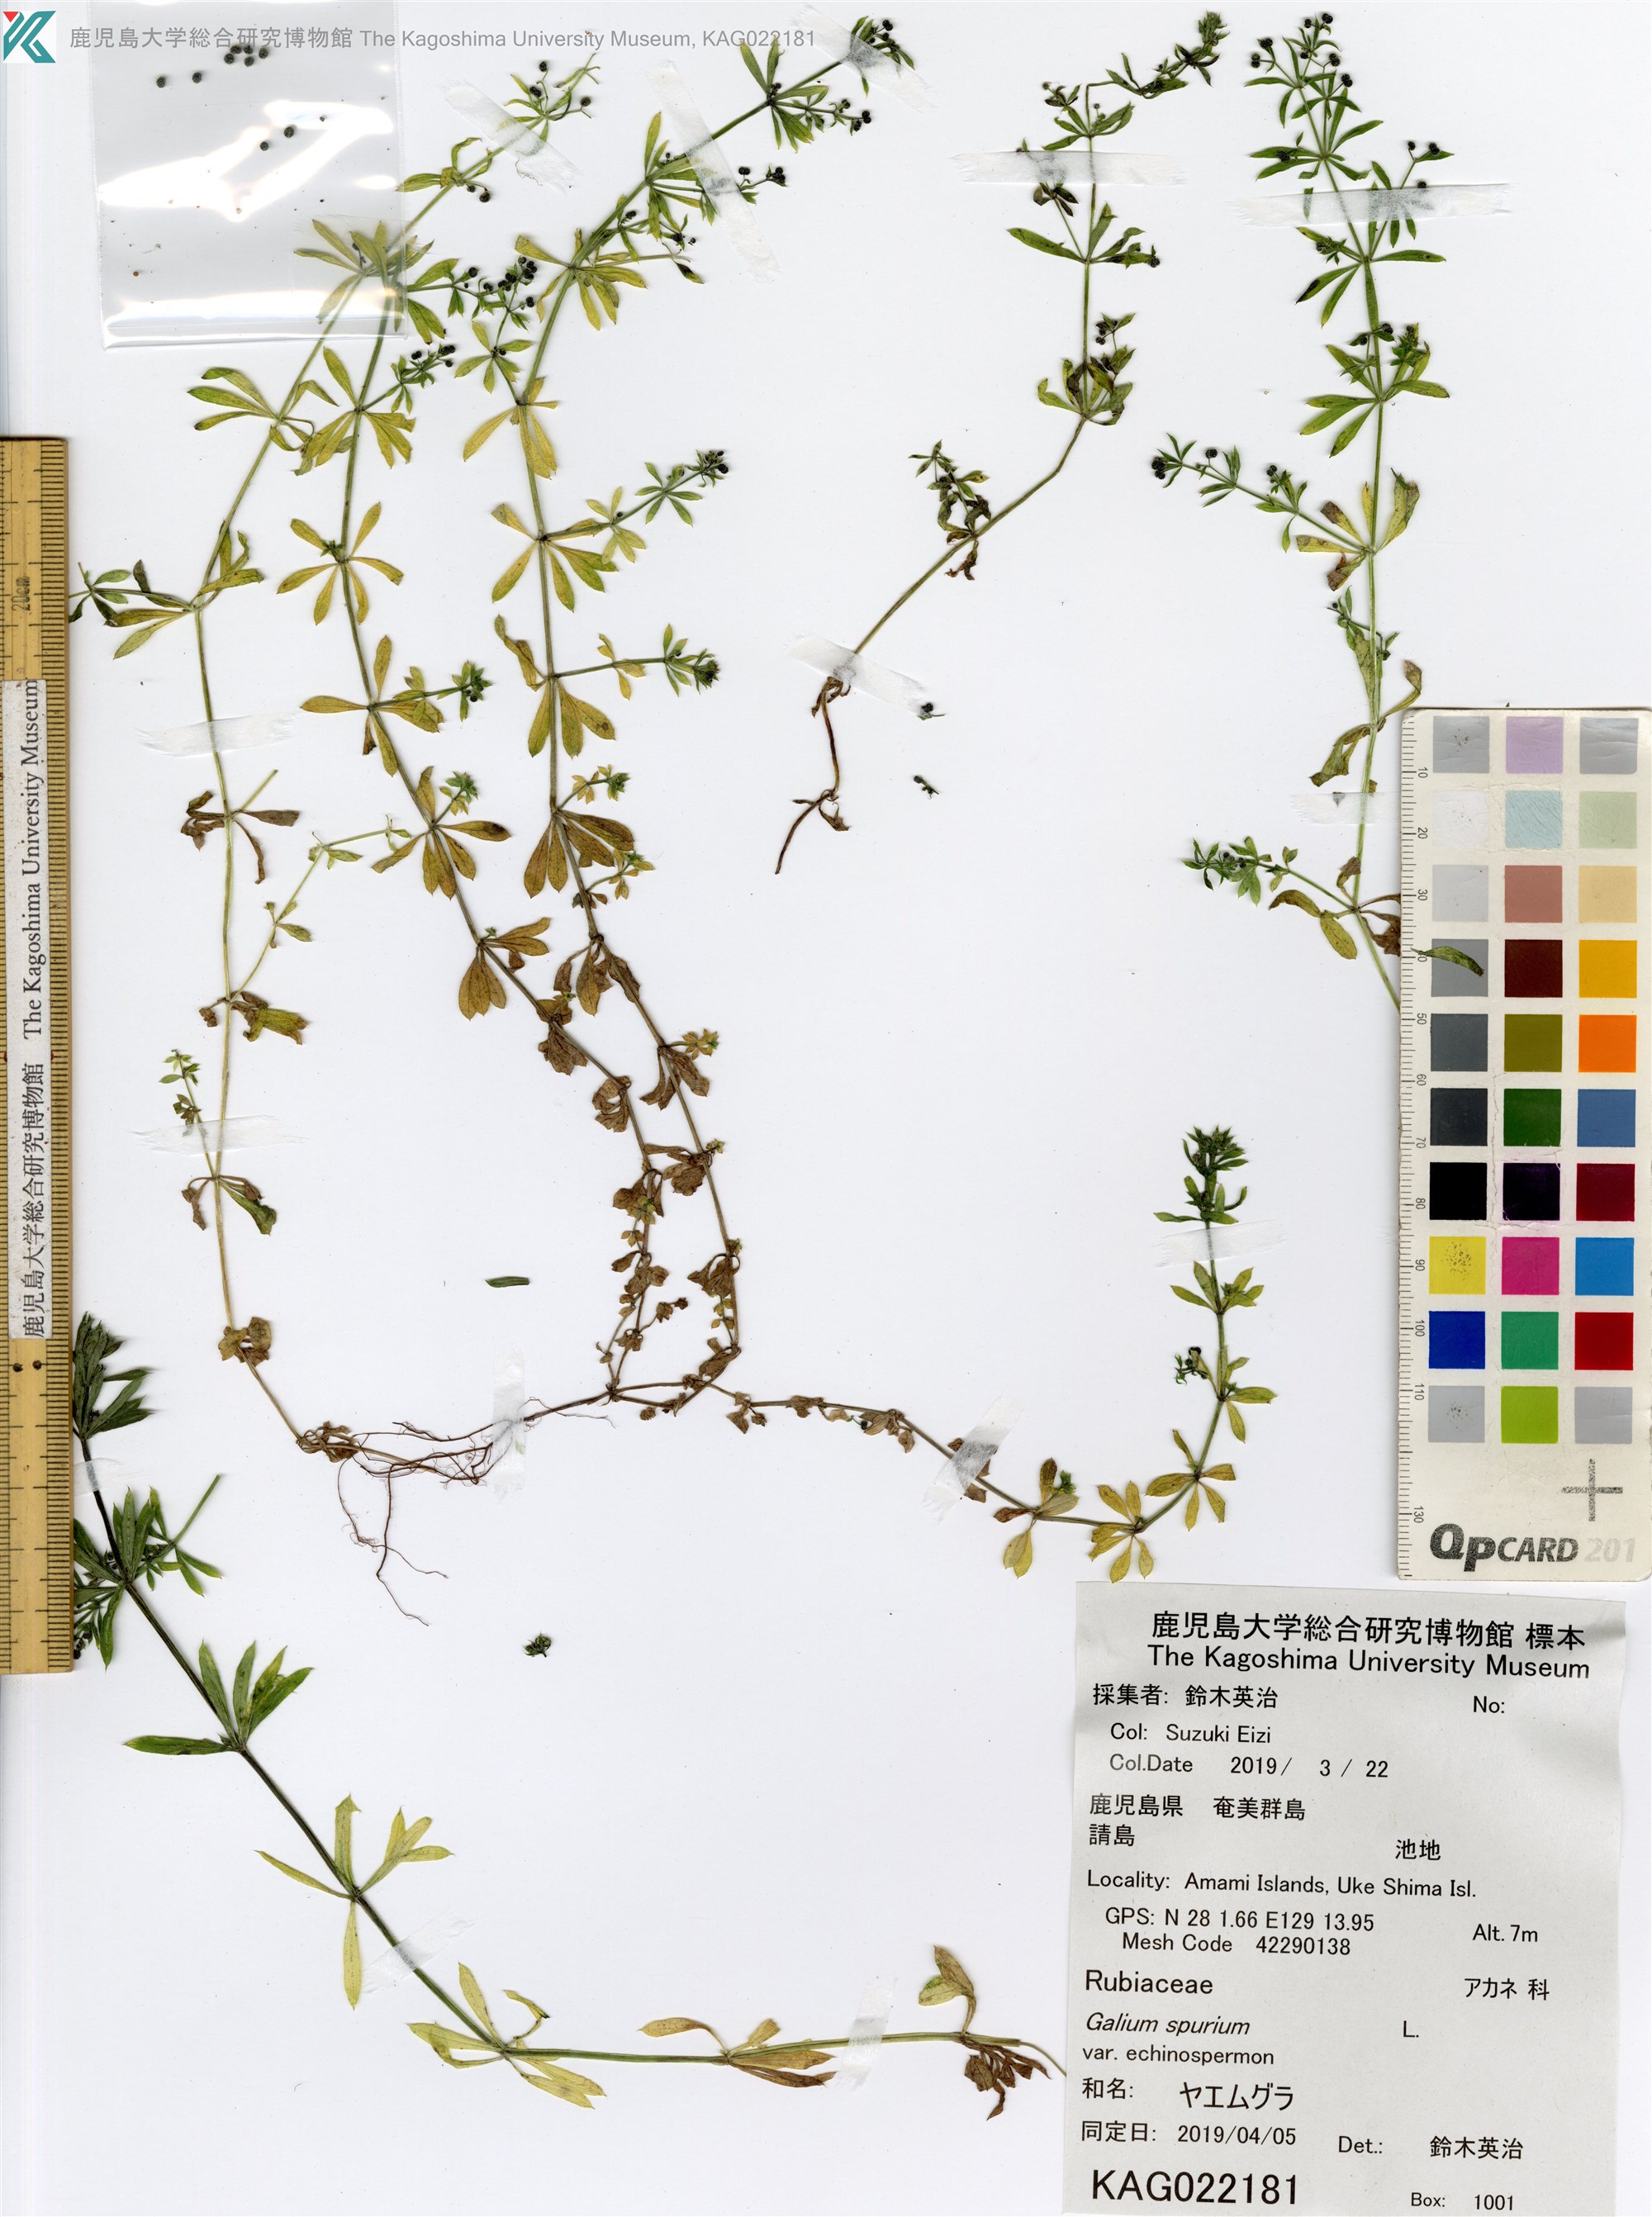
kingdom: Plantae
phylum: Tracheophyta
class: Magnoliopsida
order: Gentianales
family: Rubiaceae
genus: Galium
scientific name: Galium
